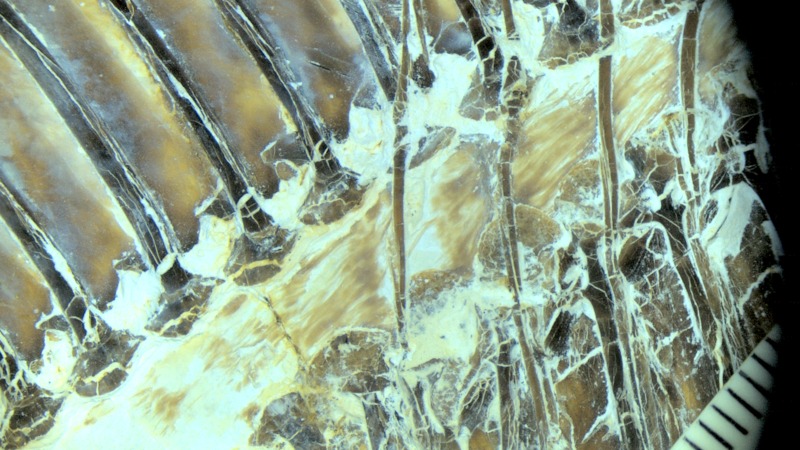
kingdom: Animalia
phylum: Chordata
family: Pycnodontidae
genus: Proscinetes
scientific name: Proscinetes elegans
